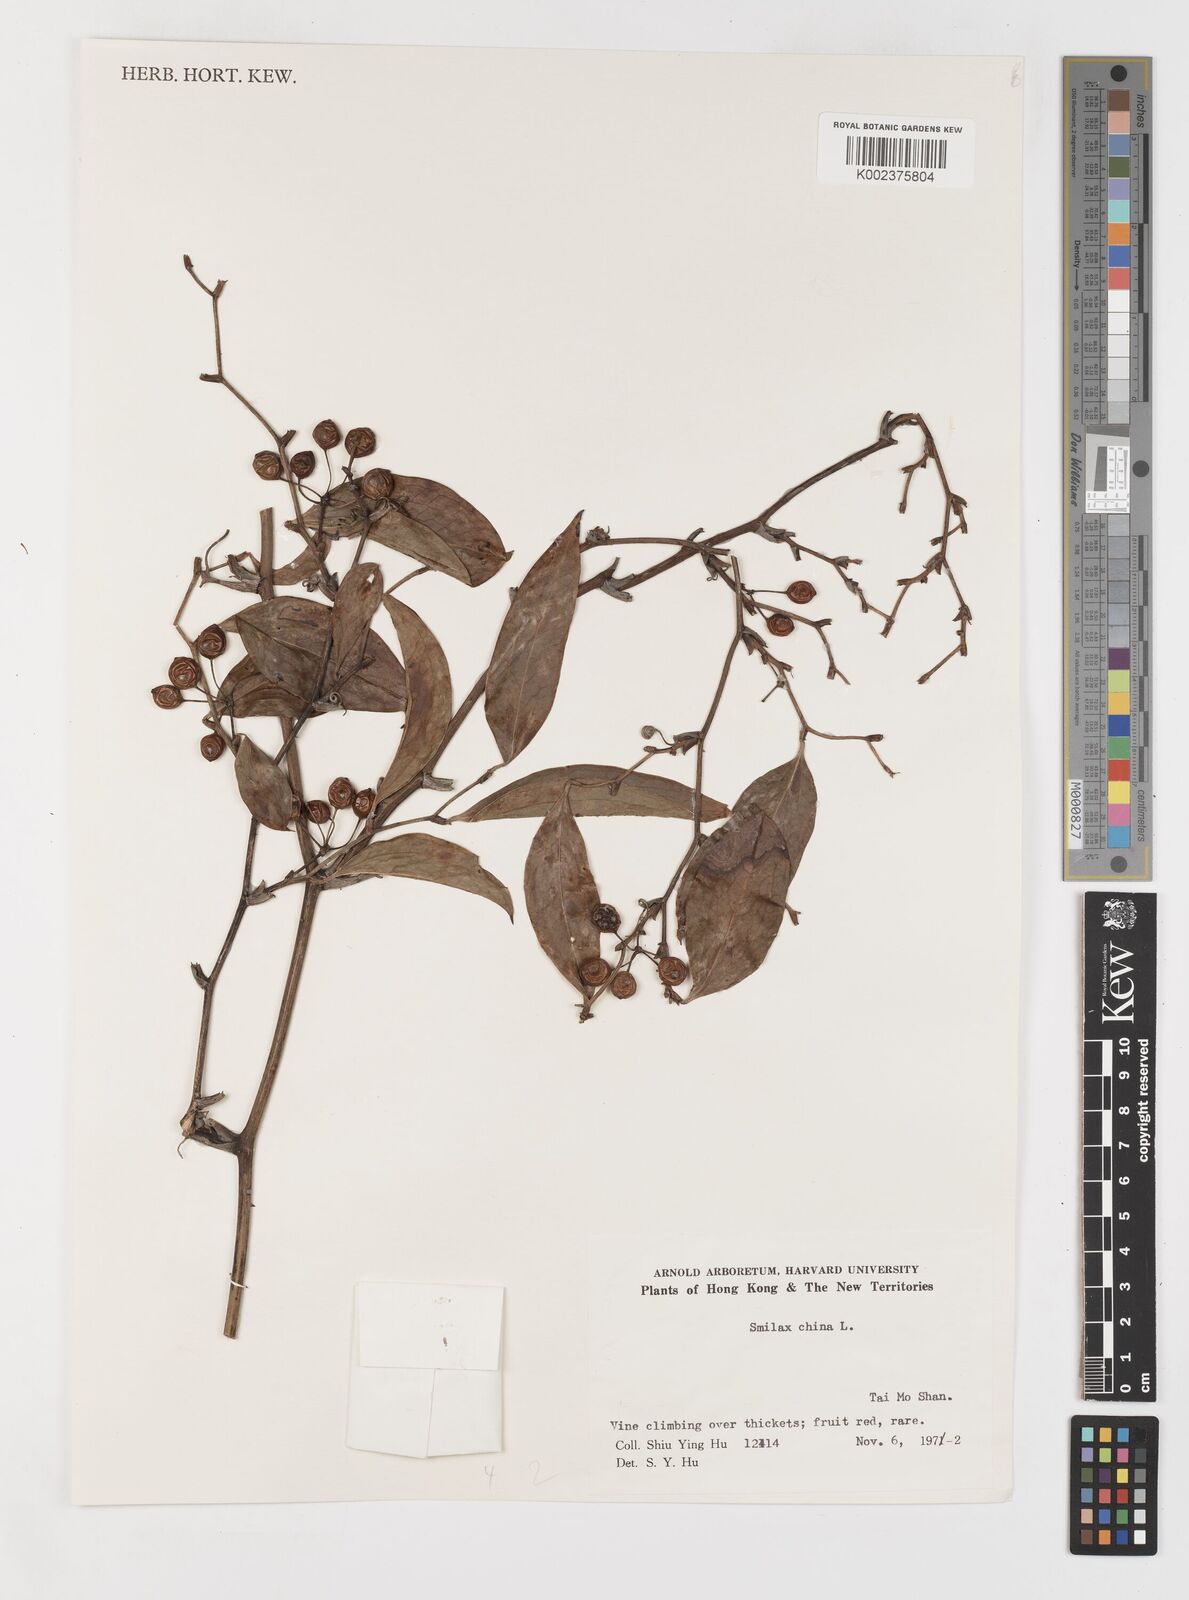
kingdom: Plantae
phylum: Tracheophyta
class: Liliopsida
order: Liliales
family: Smilacaceae
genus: Smilax
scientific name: Smilax china
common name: Chinaroot
